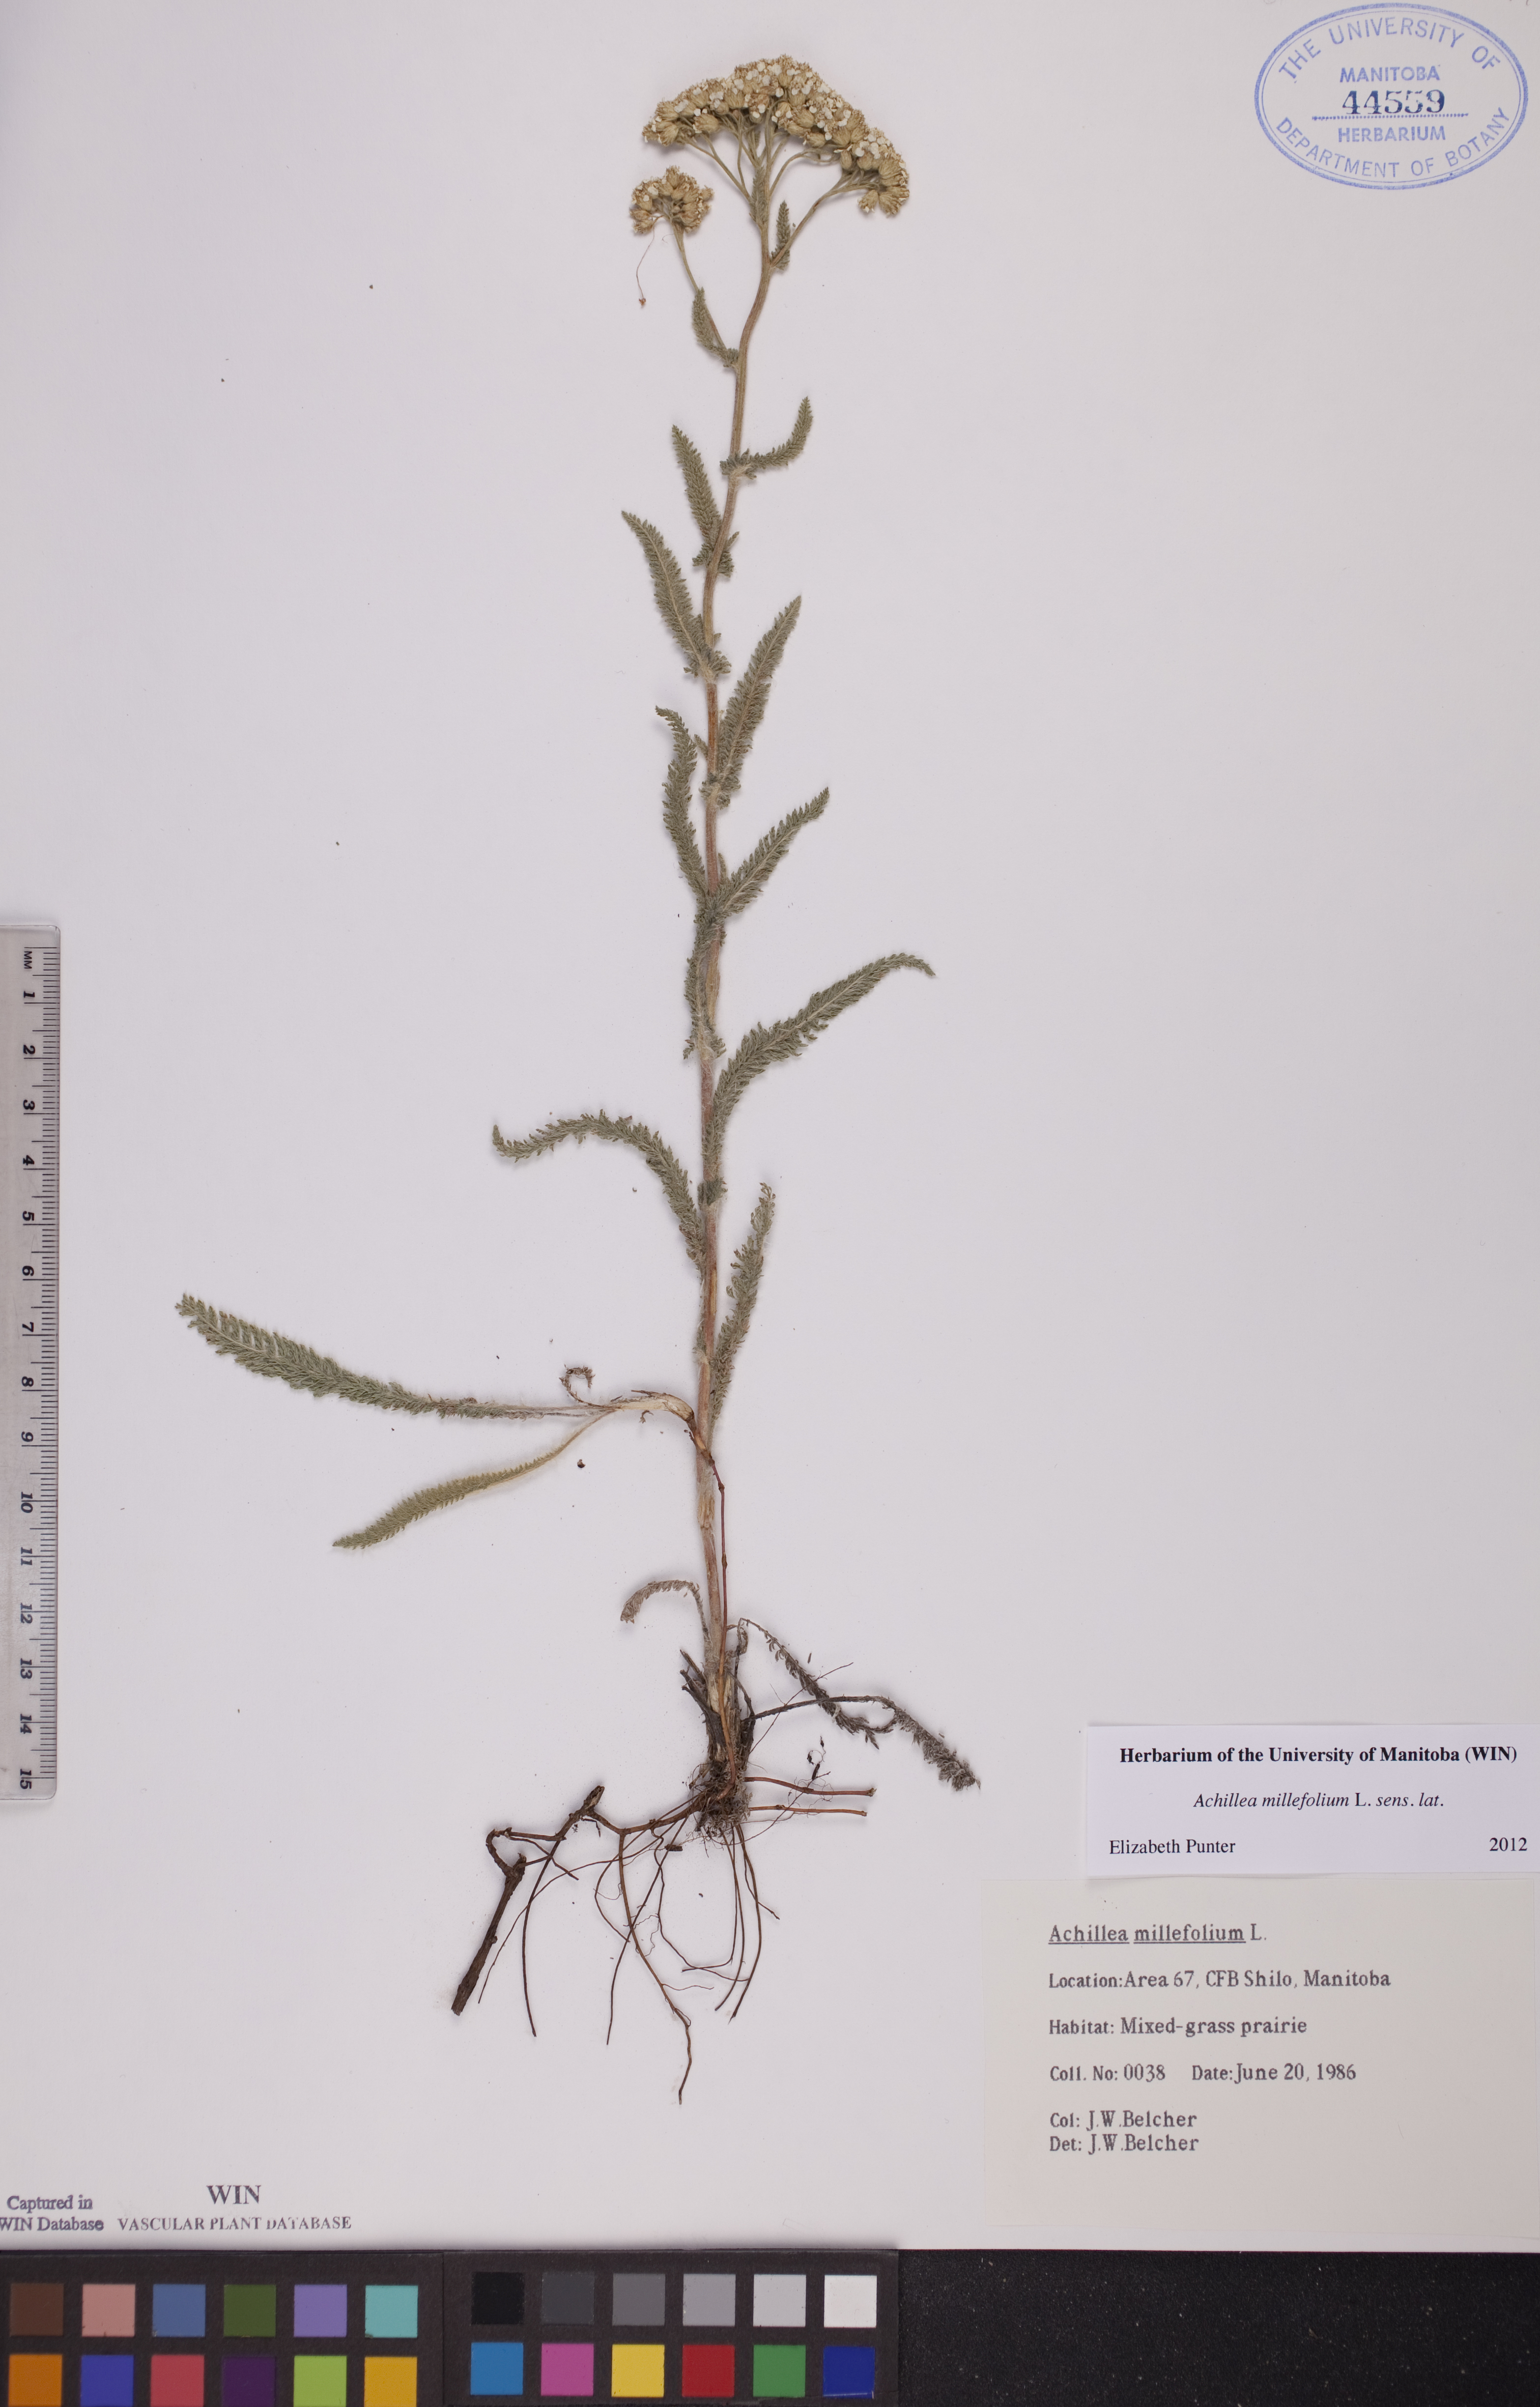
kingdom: Plantae
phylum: Tracheophyta
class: Magnoliopsida
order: Asterales
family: Asteraceae
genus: Achillea
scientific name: Achillea millefolium
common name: Yarrow
